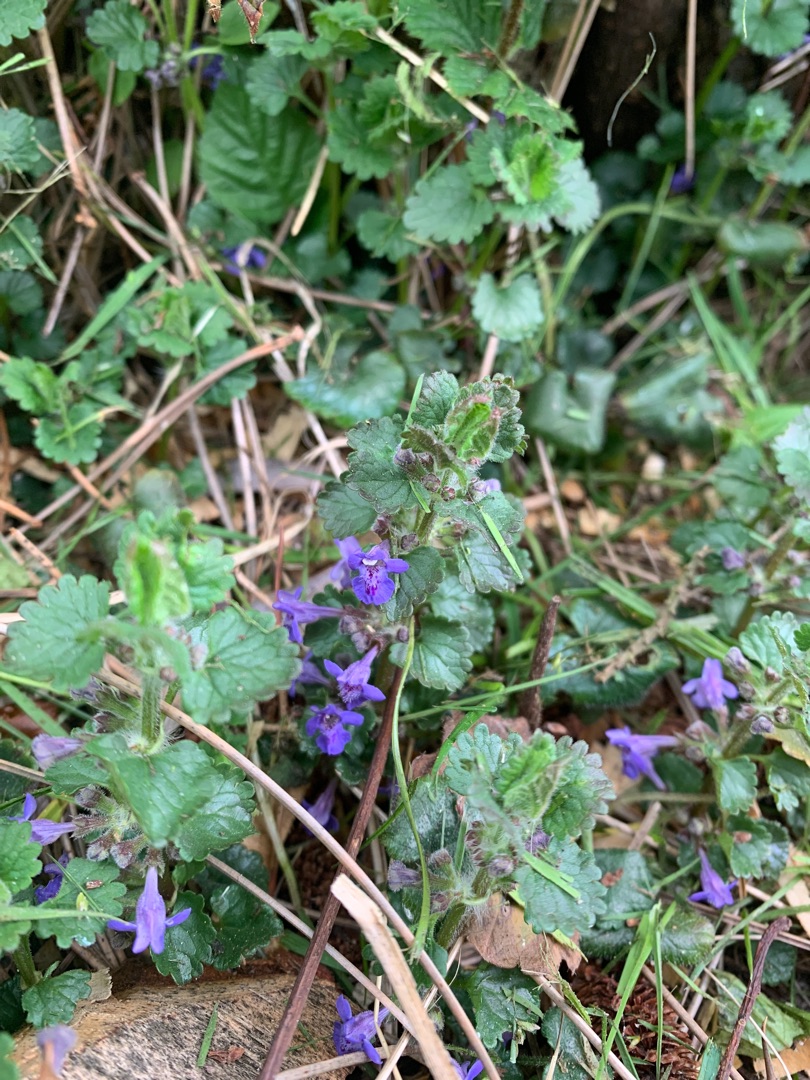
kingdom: Plantae
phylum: Tracheophyta
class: Magnoliopsida
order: Lamiales
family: Lamiaceae
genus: Glechoma
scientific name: Glechoma hederacea
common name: Korsknap
